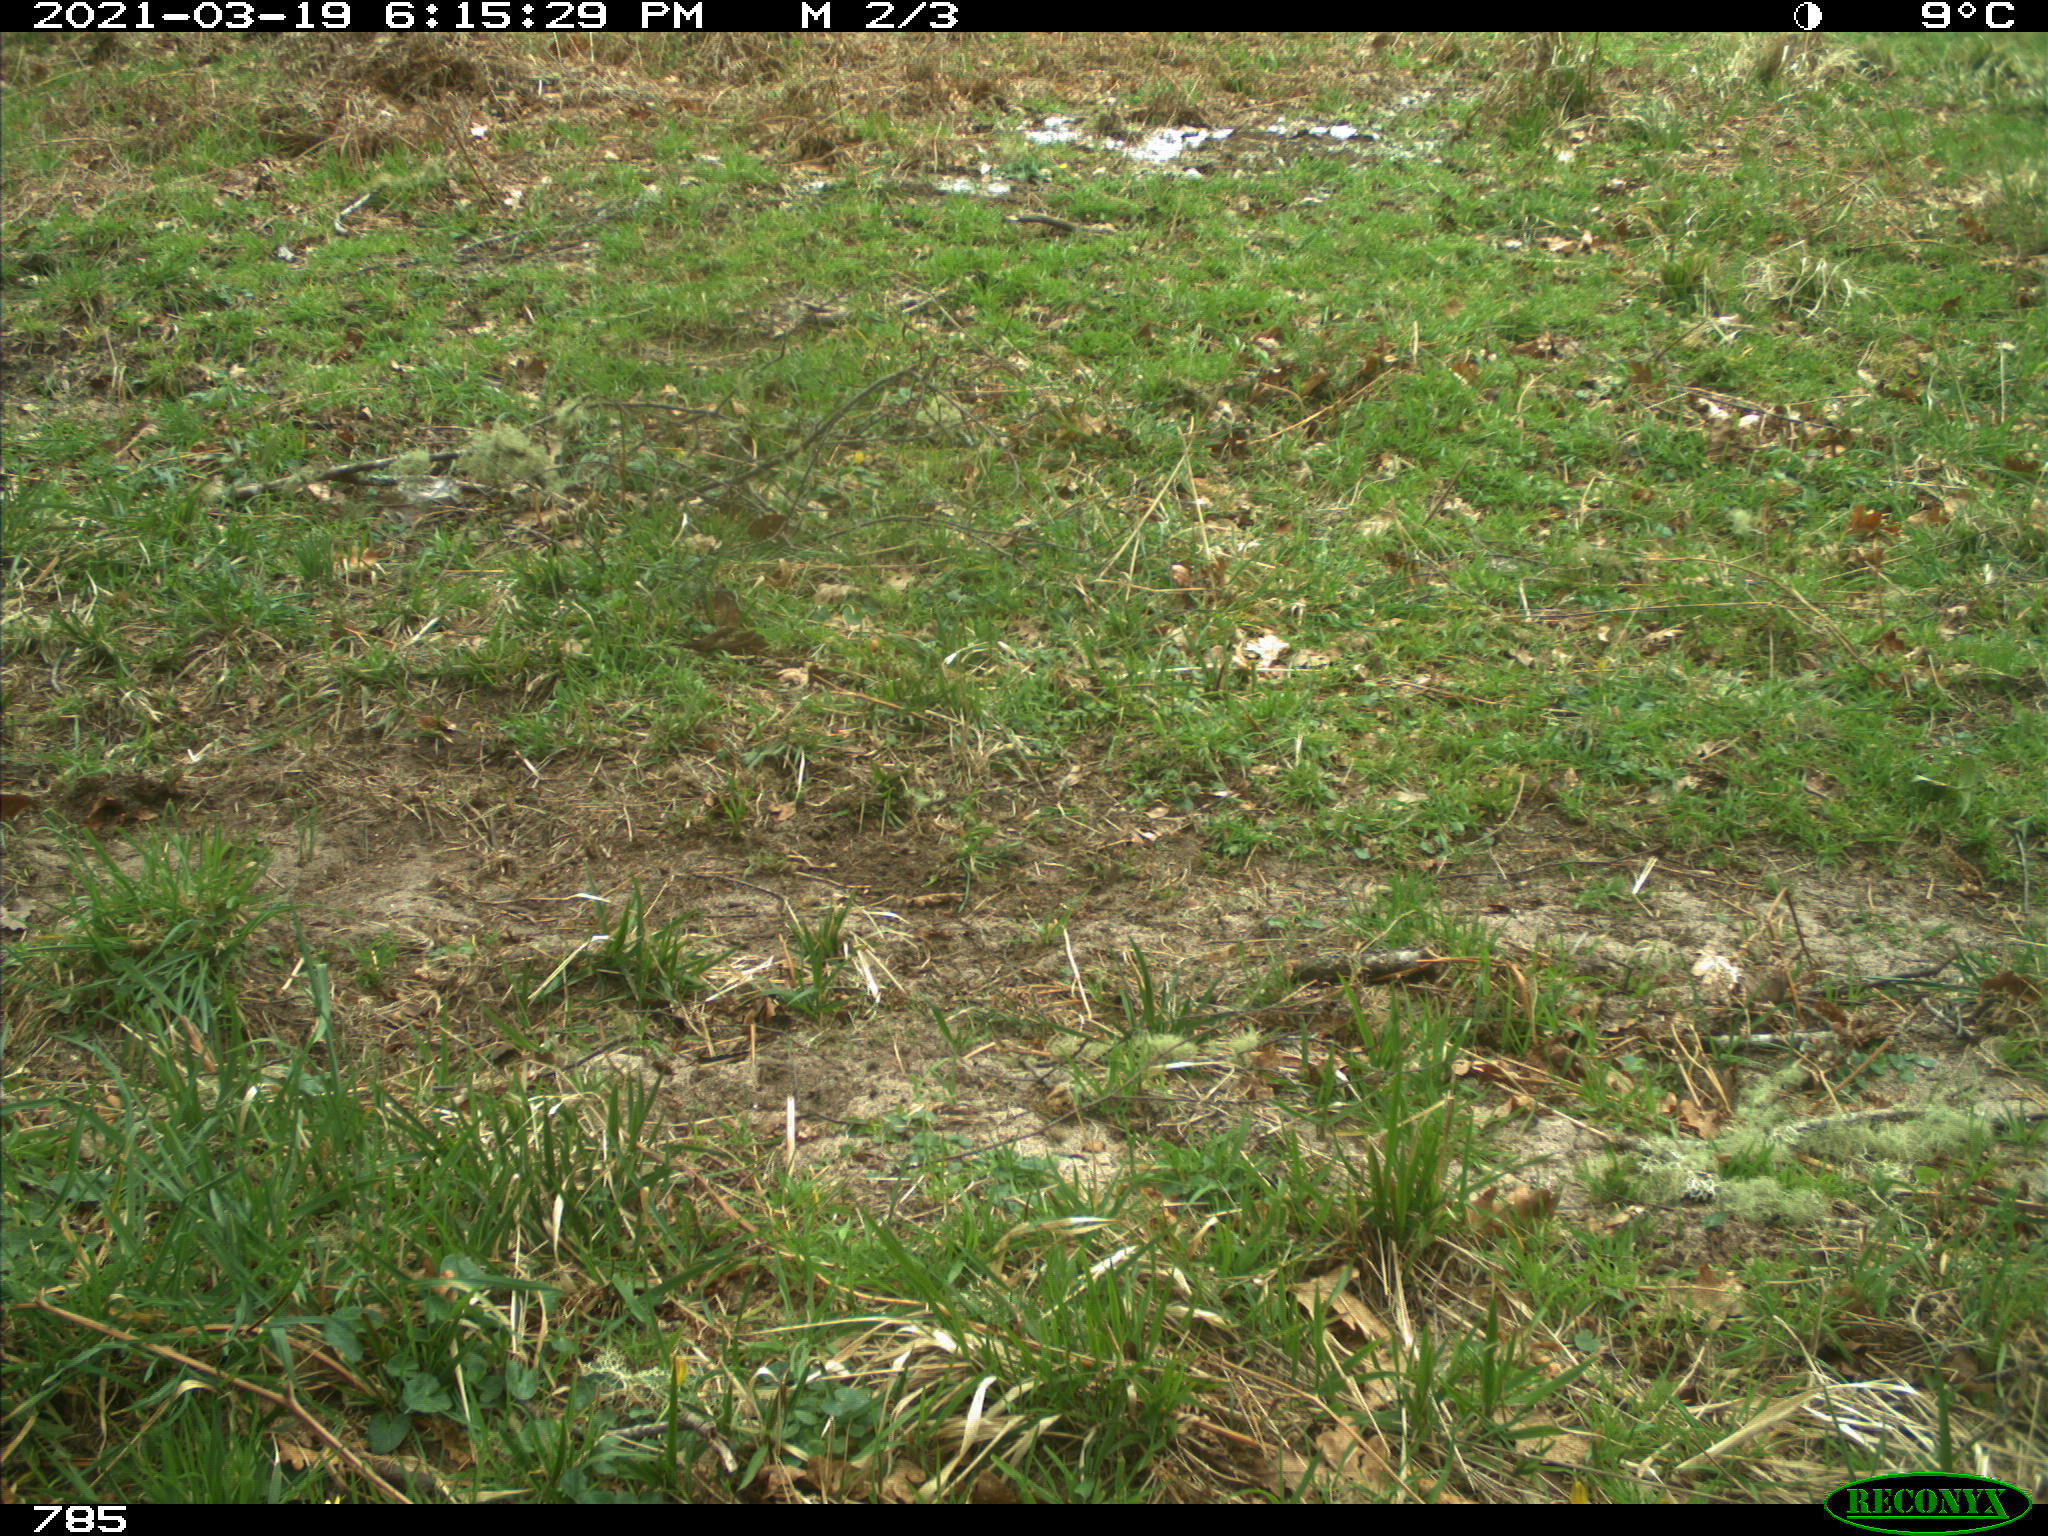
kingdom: Animalia
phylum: Chordata
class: Mammalia
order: Perissodactyla
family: Equidae
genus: Equus
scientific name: Equus caballus
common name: Horse
